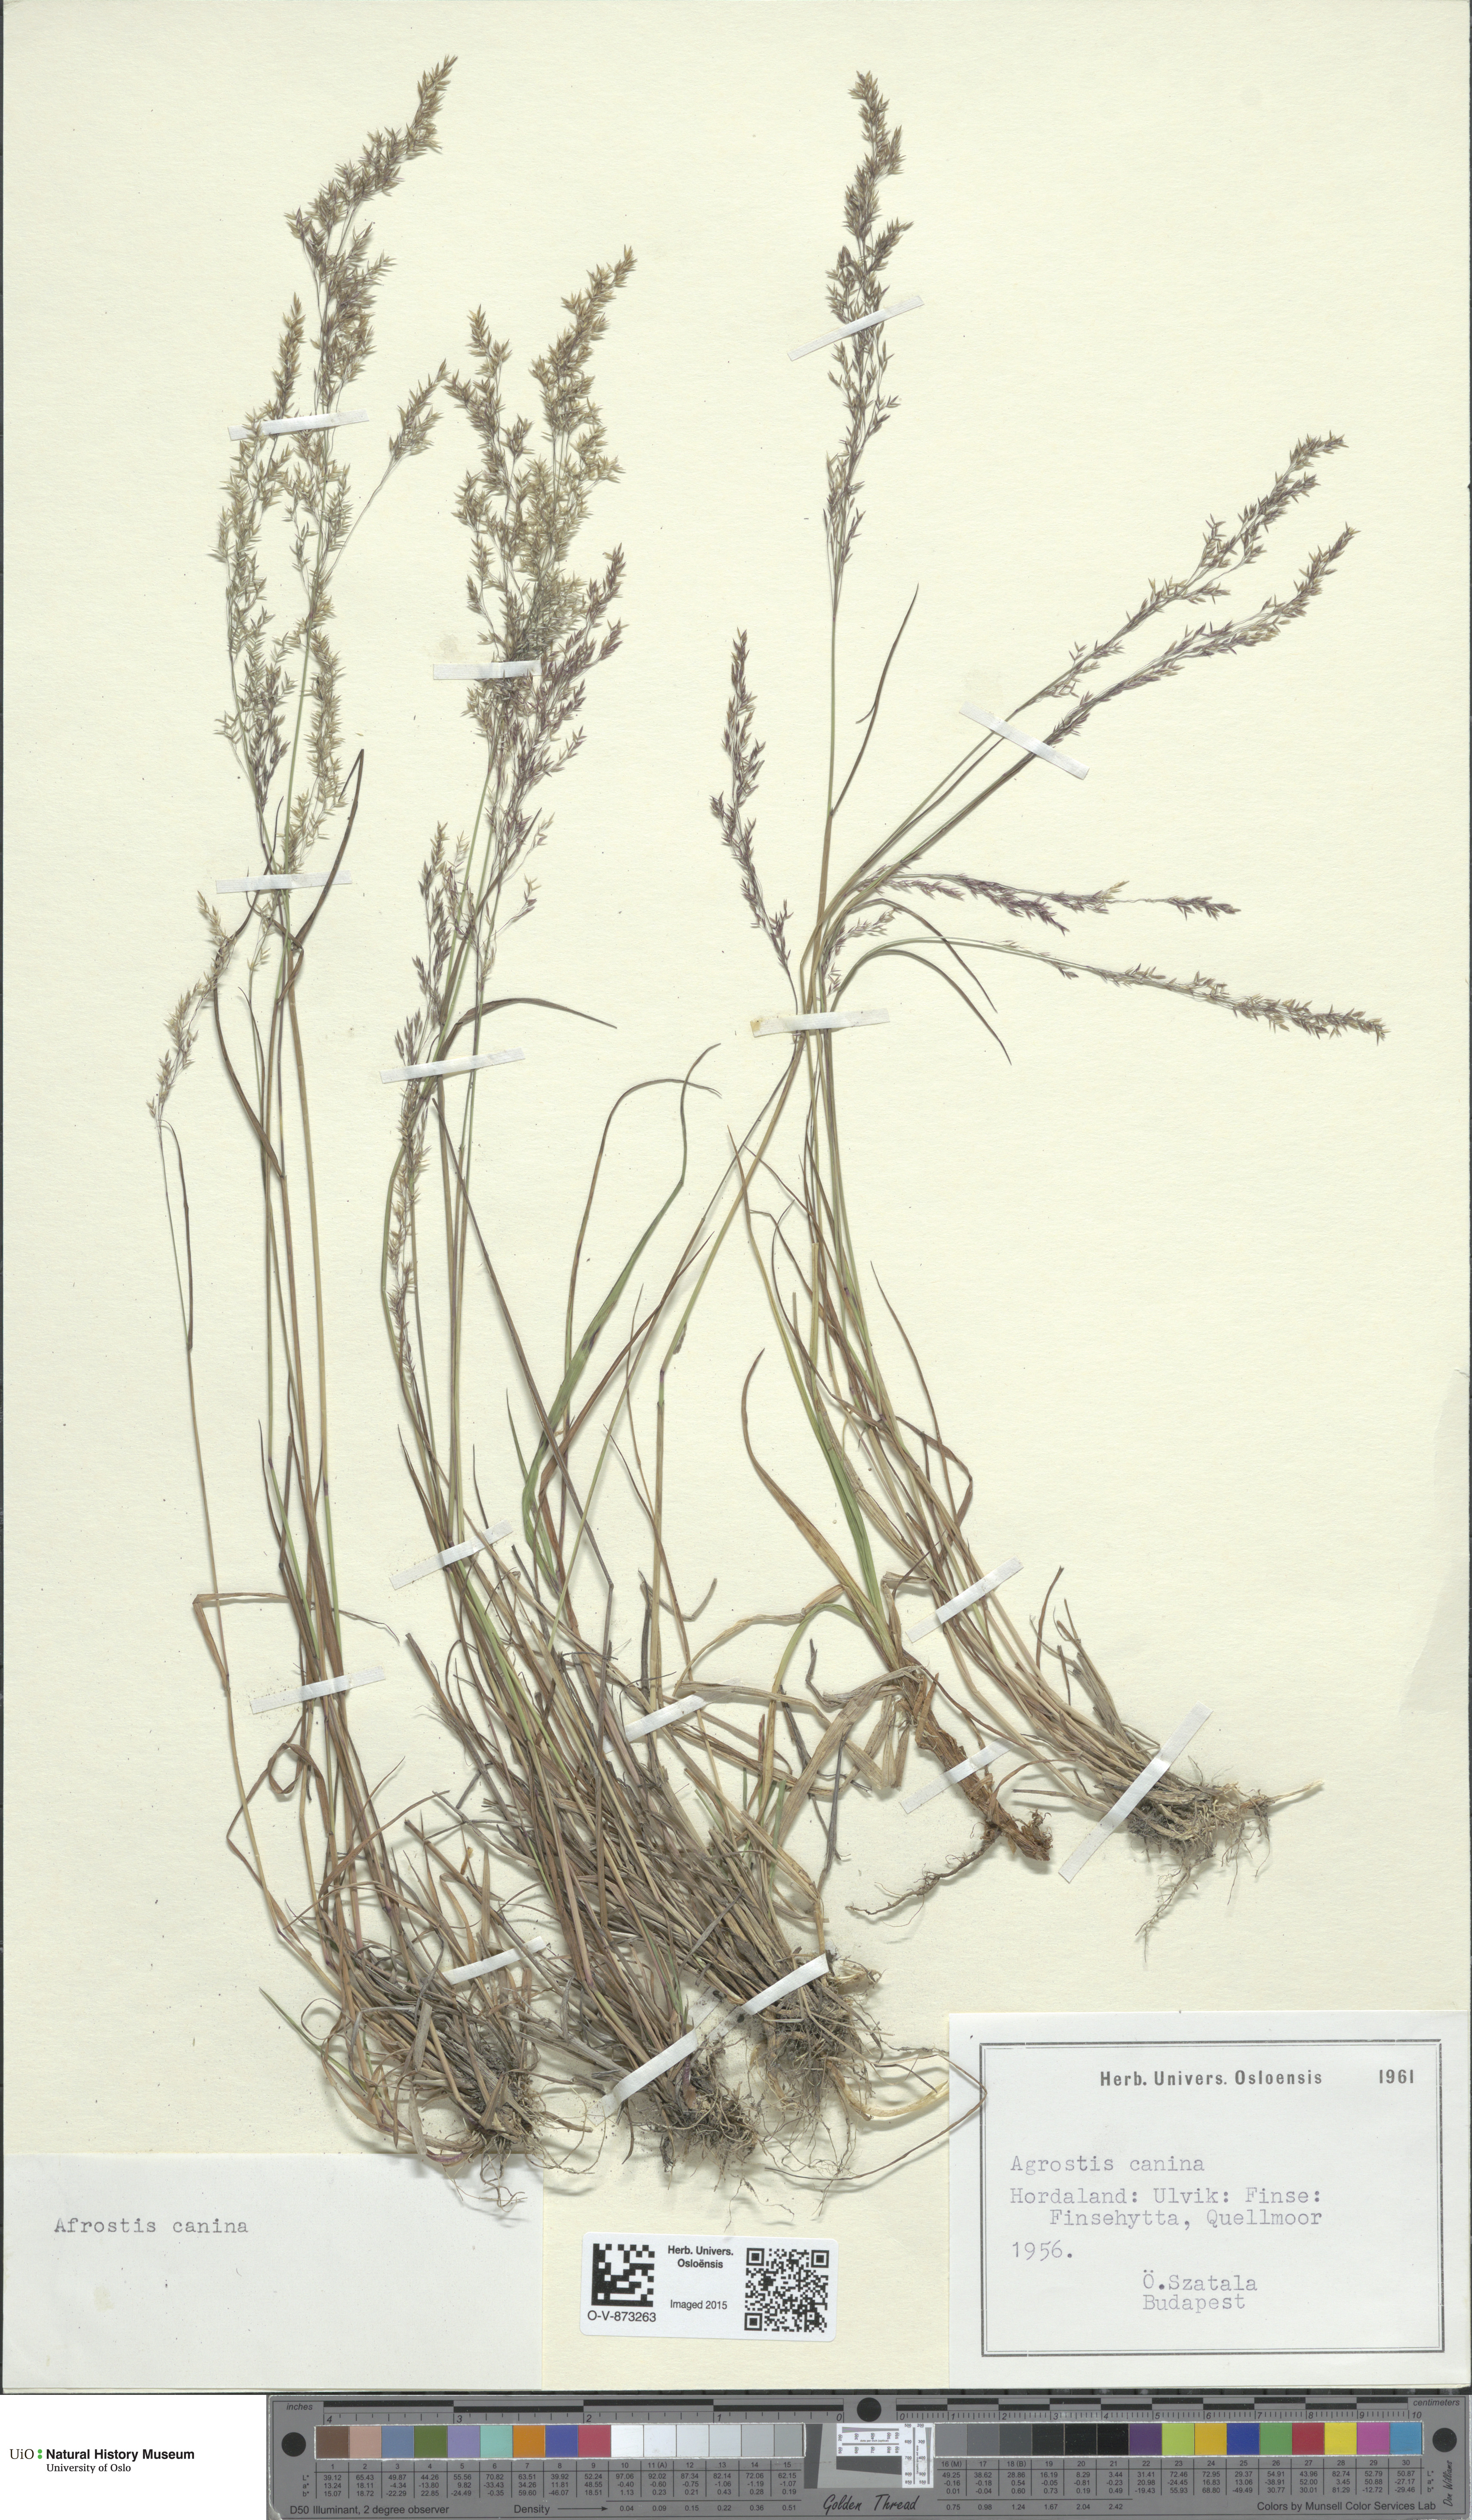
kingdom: Plantae
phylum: Tracheophyta
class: Liliopsida
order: Poales
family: Poaceae
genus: Agrostis
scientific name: Agrostis canina
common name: Velvet bent
